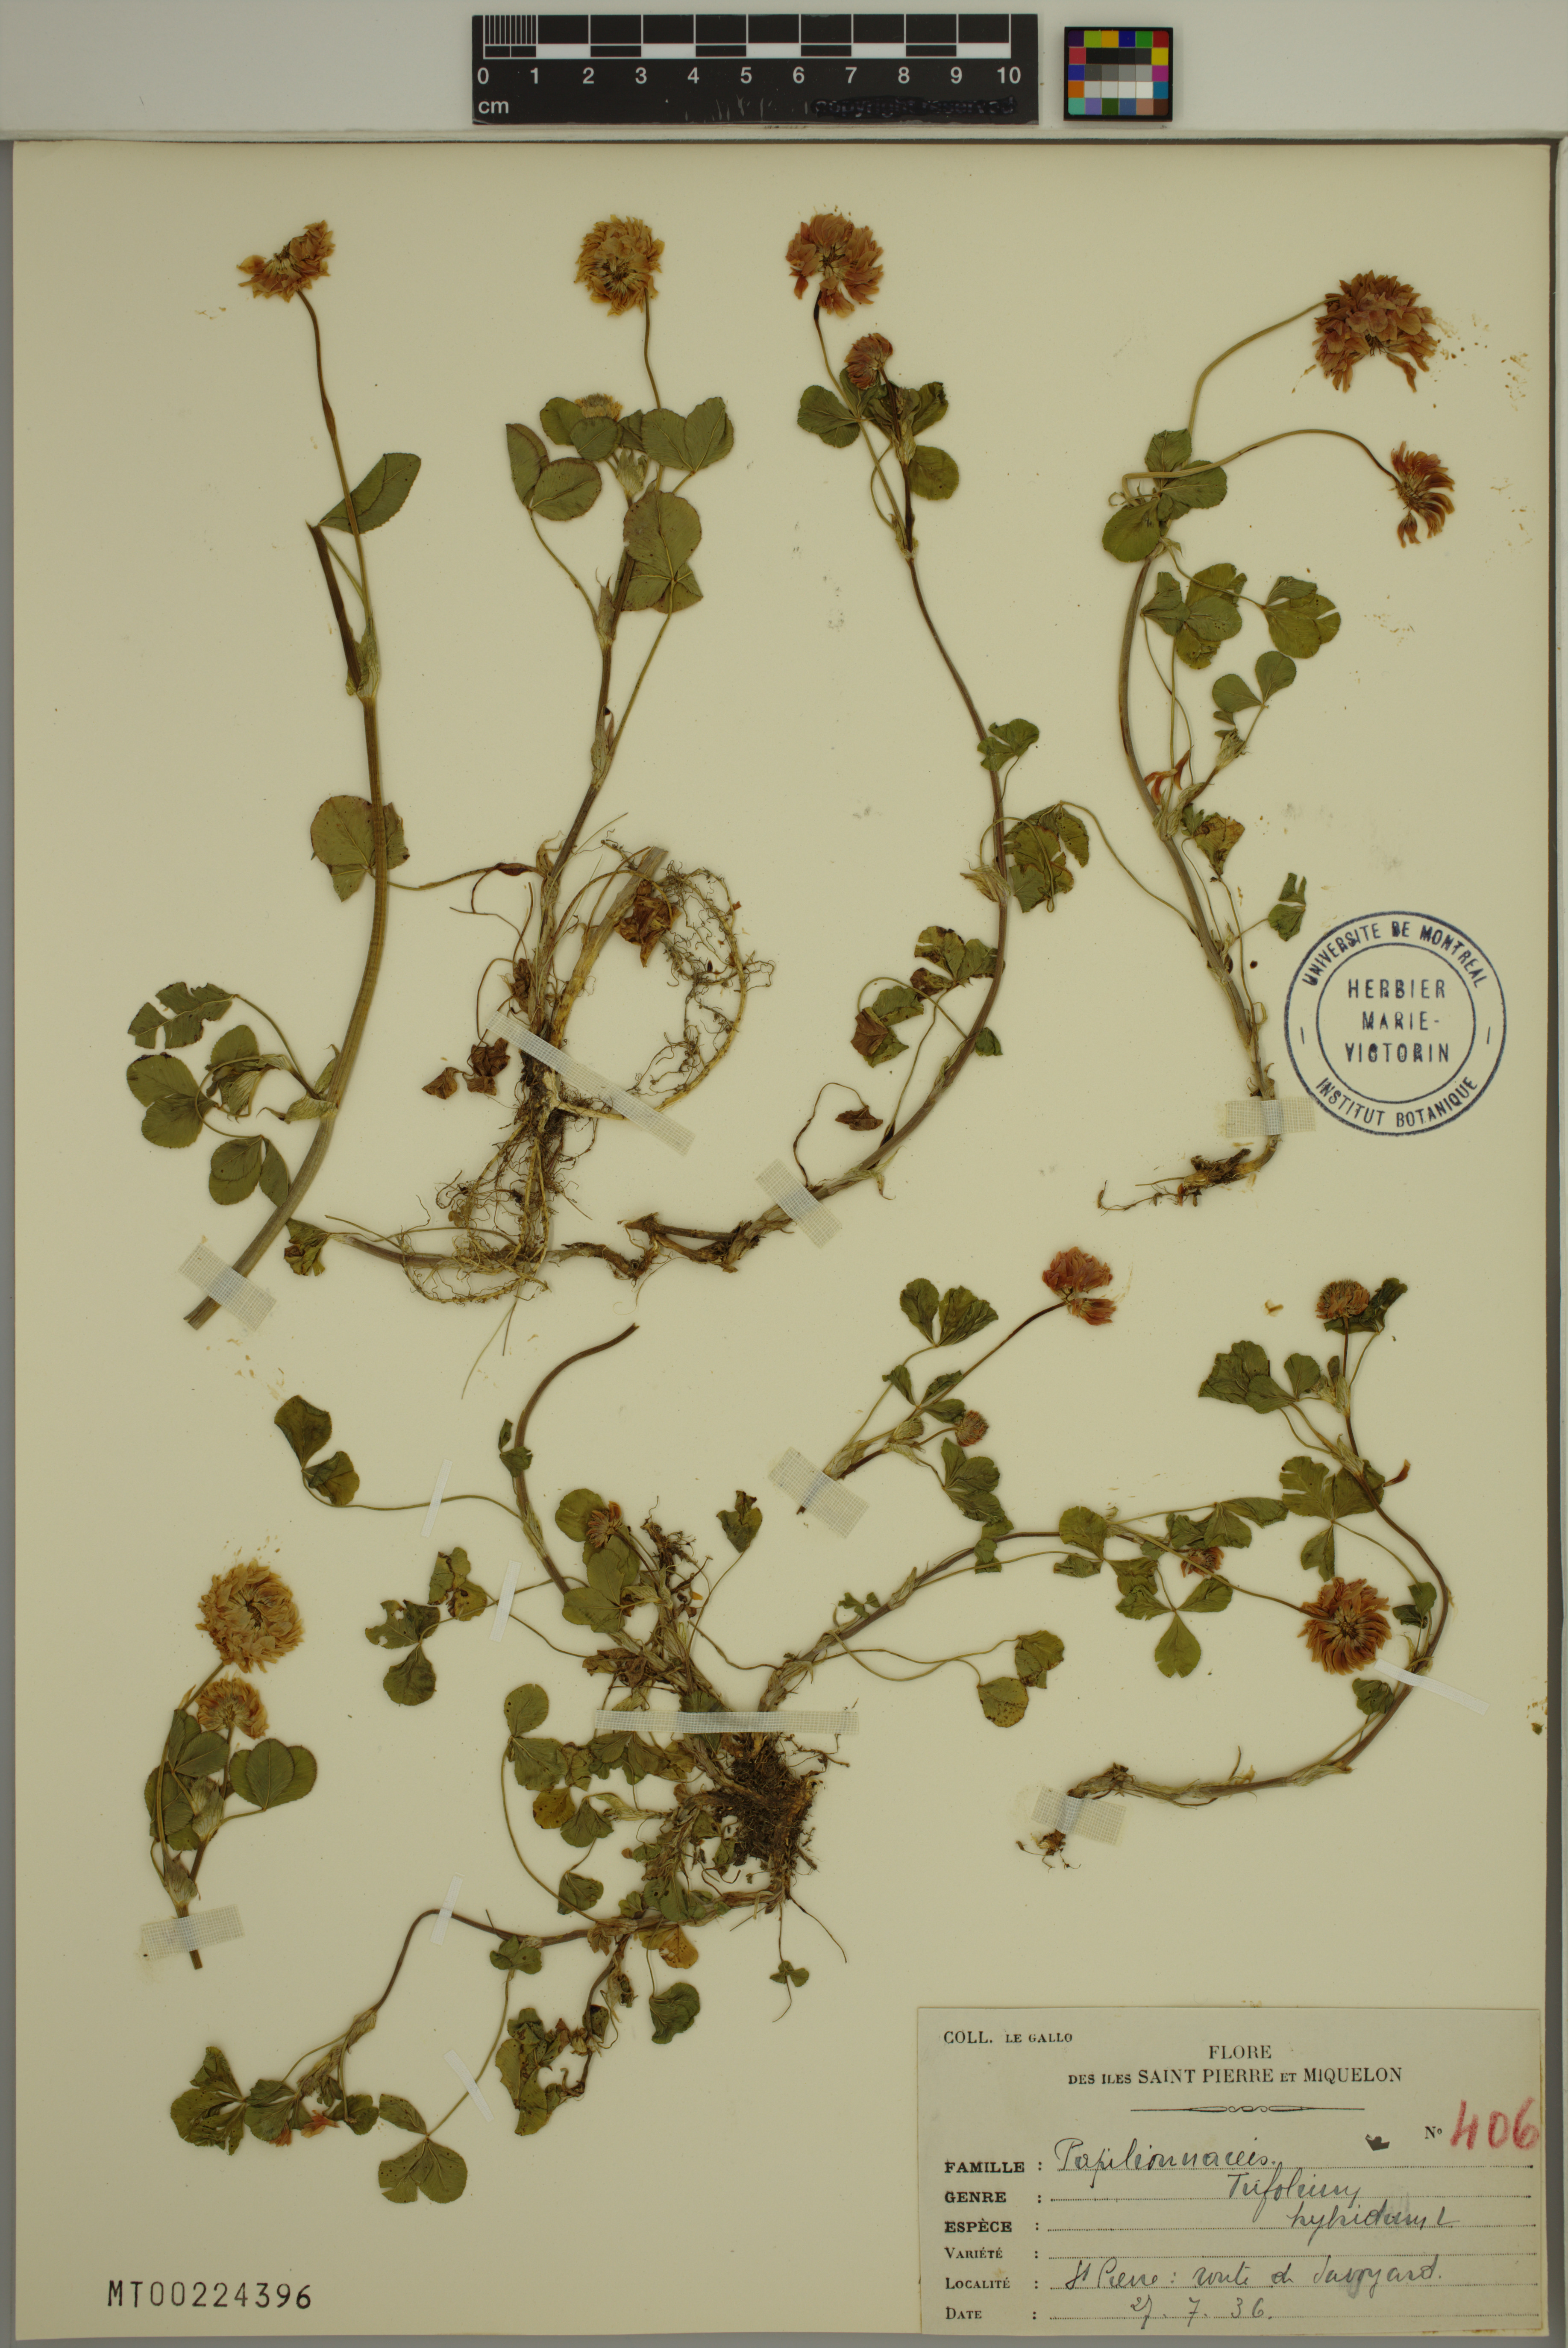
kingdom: Plantae
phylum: Tracheophyta
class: Magnoliopsida
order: Fabales
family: Fabaceae
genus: Trifolium
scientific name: Trifolium hybridum
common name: Alsike clover
